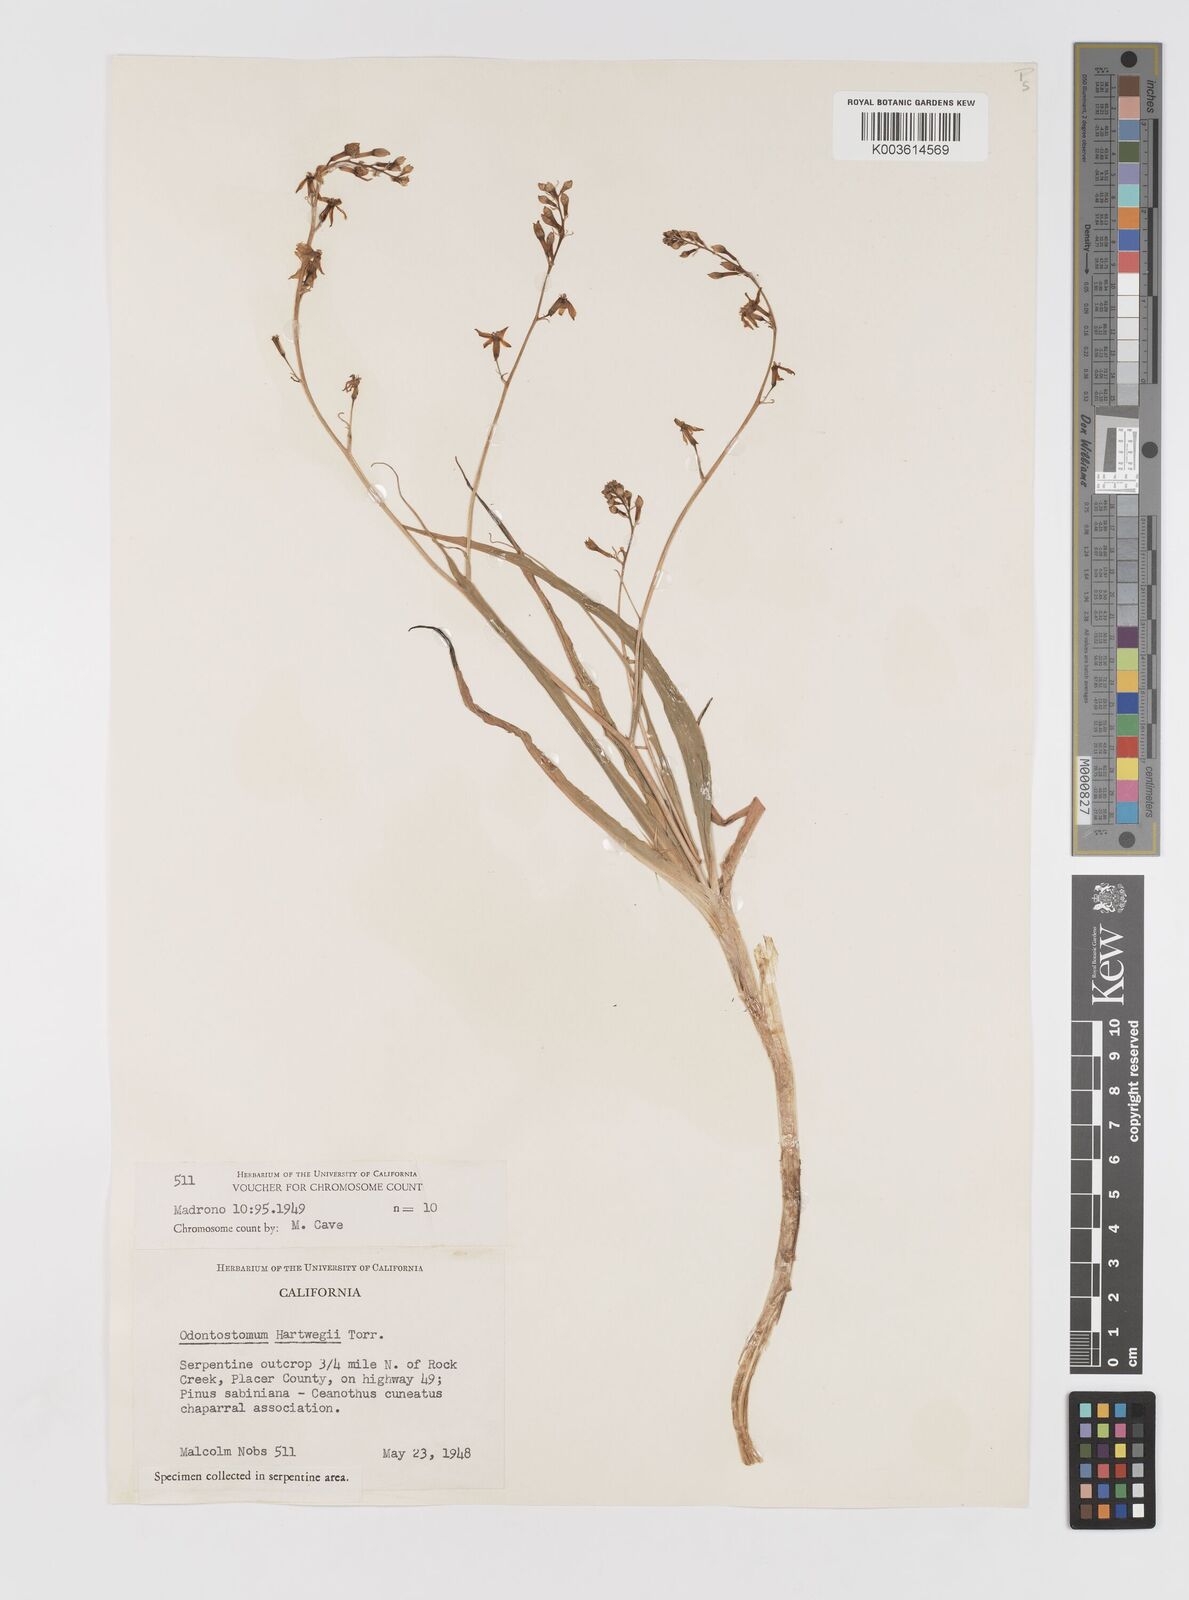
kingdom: Plantae
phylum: Tracheophyta
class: Liliopsida
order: Asparagales
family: Tecophilaeaceae
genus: Odontostomum
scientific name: Odontostomum hartwegii
